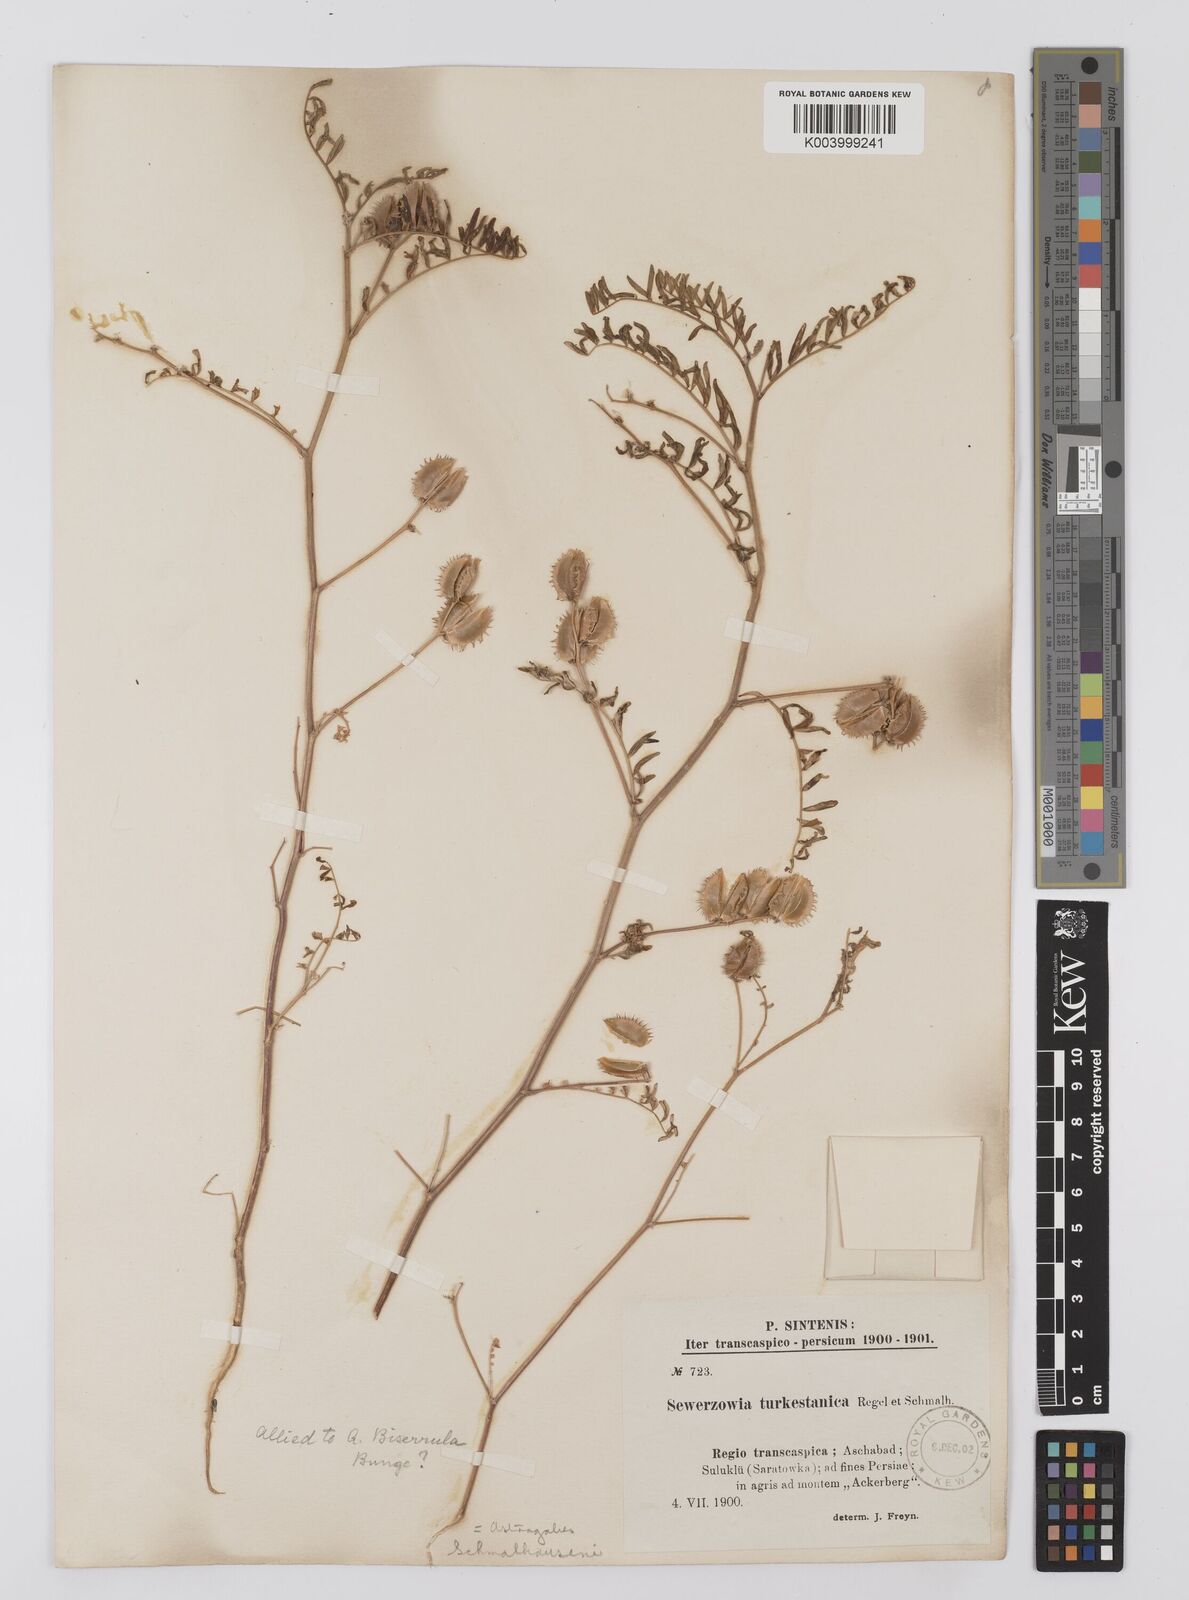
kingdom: Plantae
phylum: Tracheophyta
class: Magnoliopsida
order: Fabales
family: Fabaceae
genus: Astragalus
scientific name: Astragalus schmalhausenii
